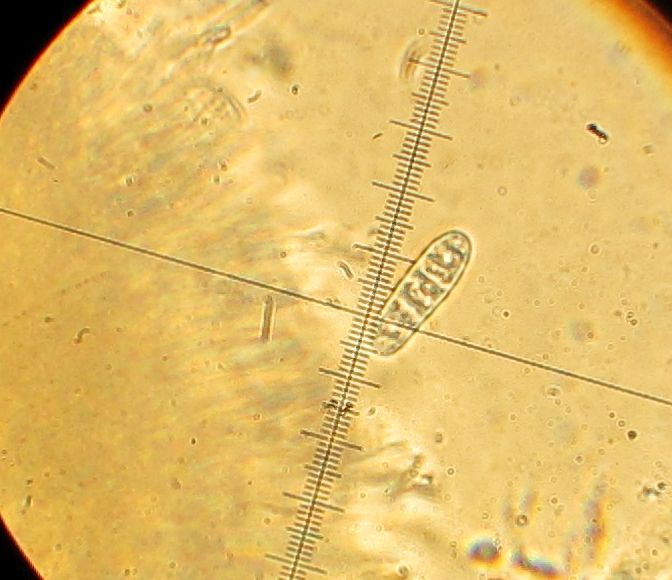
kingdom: Fungi
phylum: Ascomycota
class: Lecanoromycetes
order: Ostropales
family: Graphidaceae
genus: Graphis
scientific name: Graphis scripta
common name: almindelig skriftlav
